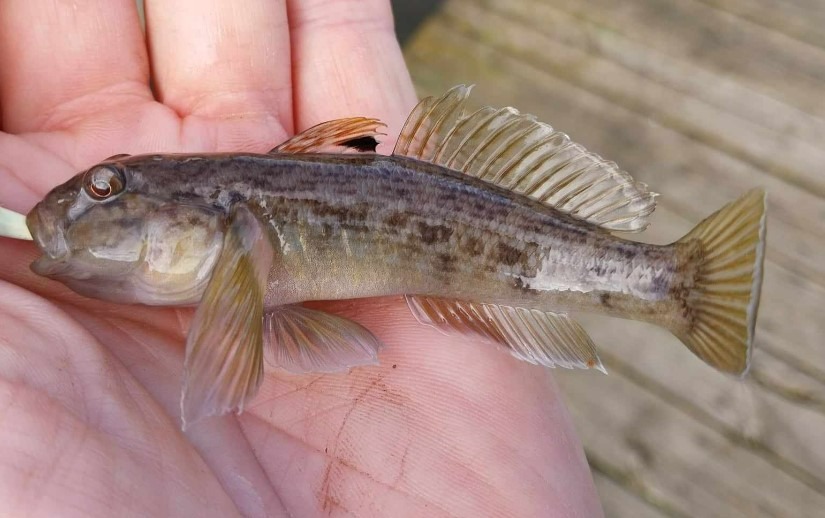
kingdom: Animalia
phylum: Chordata
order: Perciformes
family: Gobiidae
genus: Neogobius
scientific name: Neogobius melanostomus
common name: Sortmundet kutling
